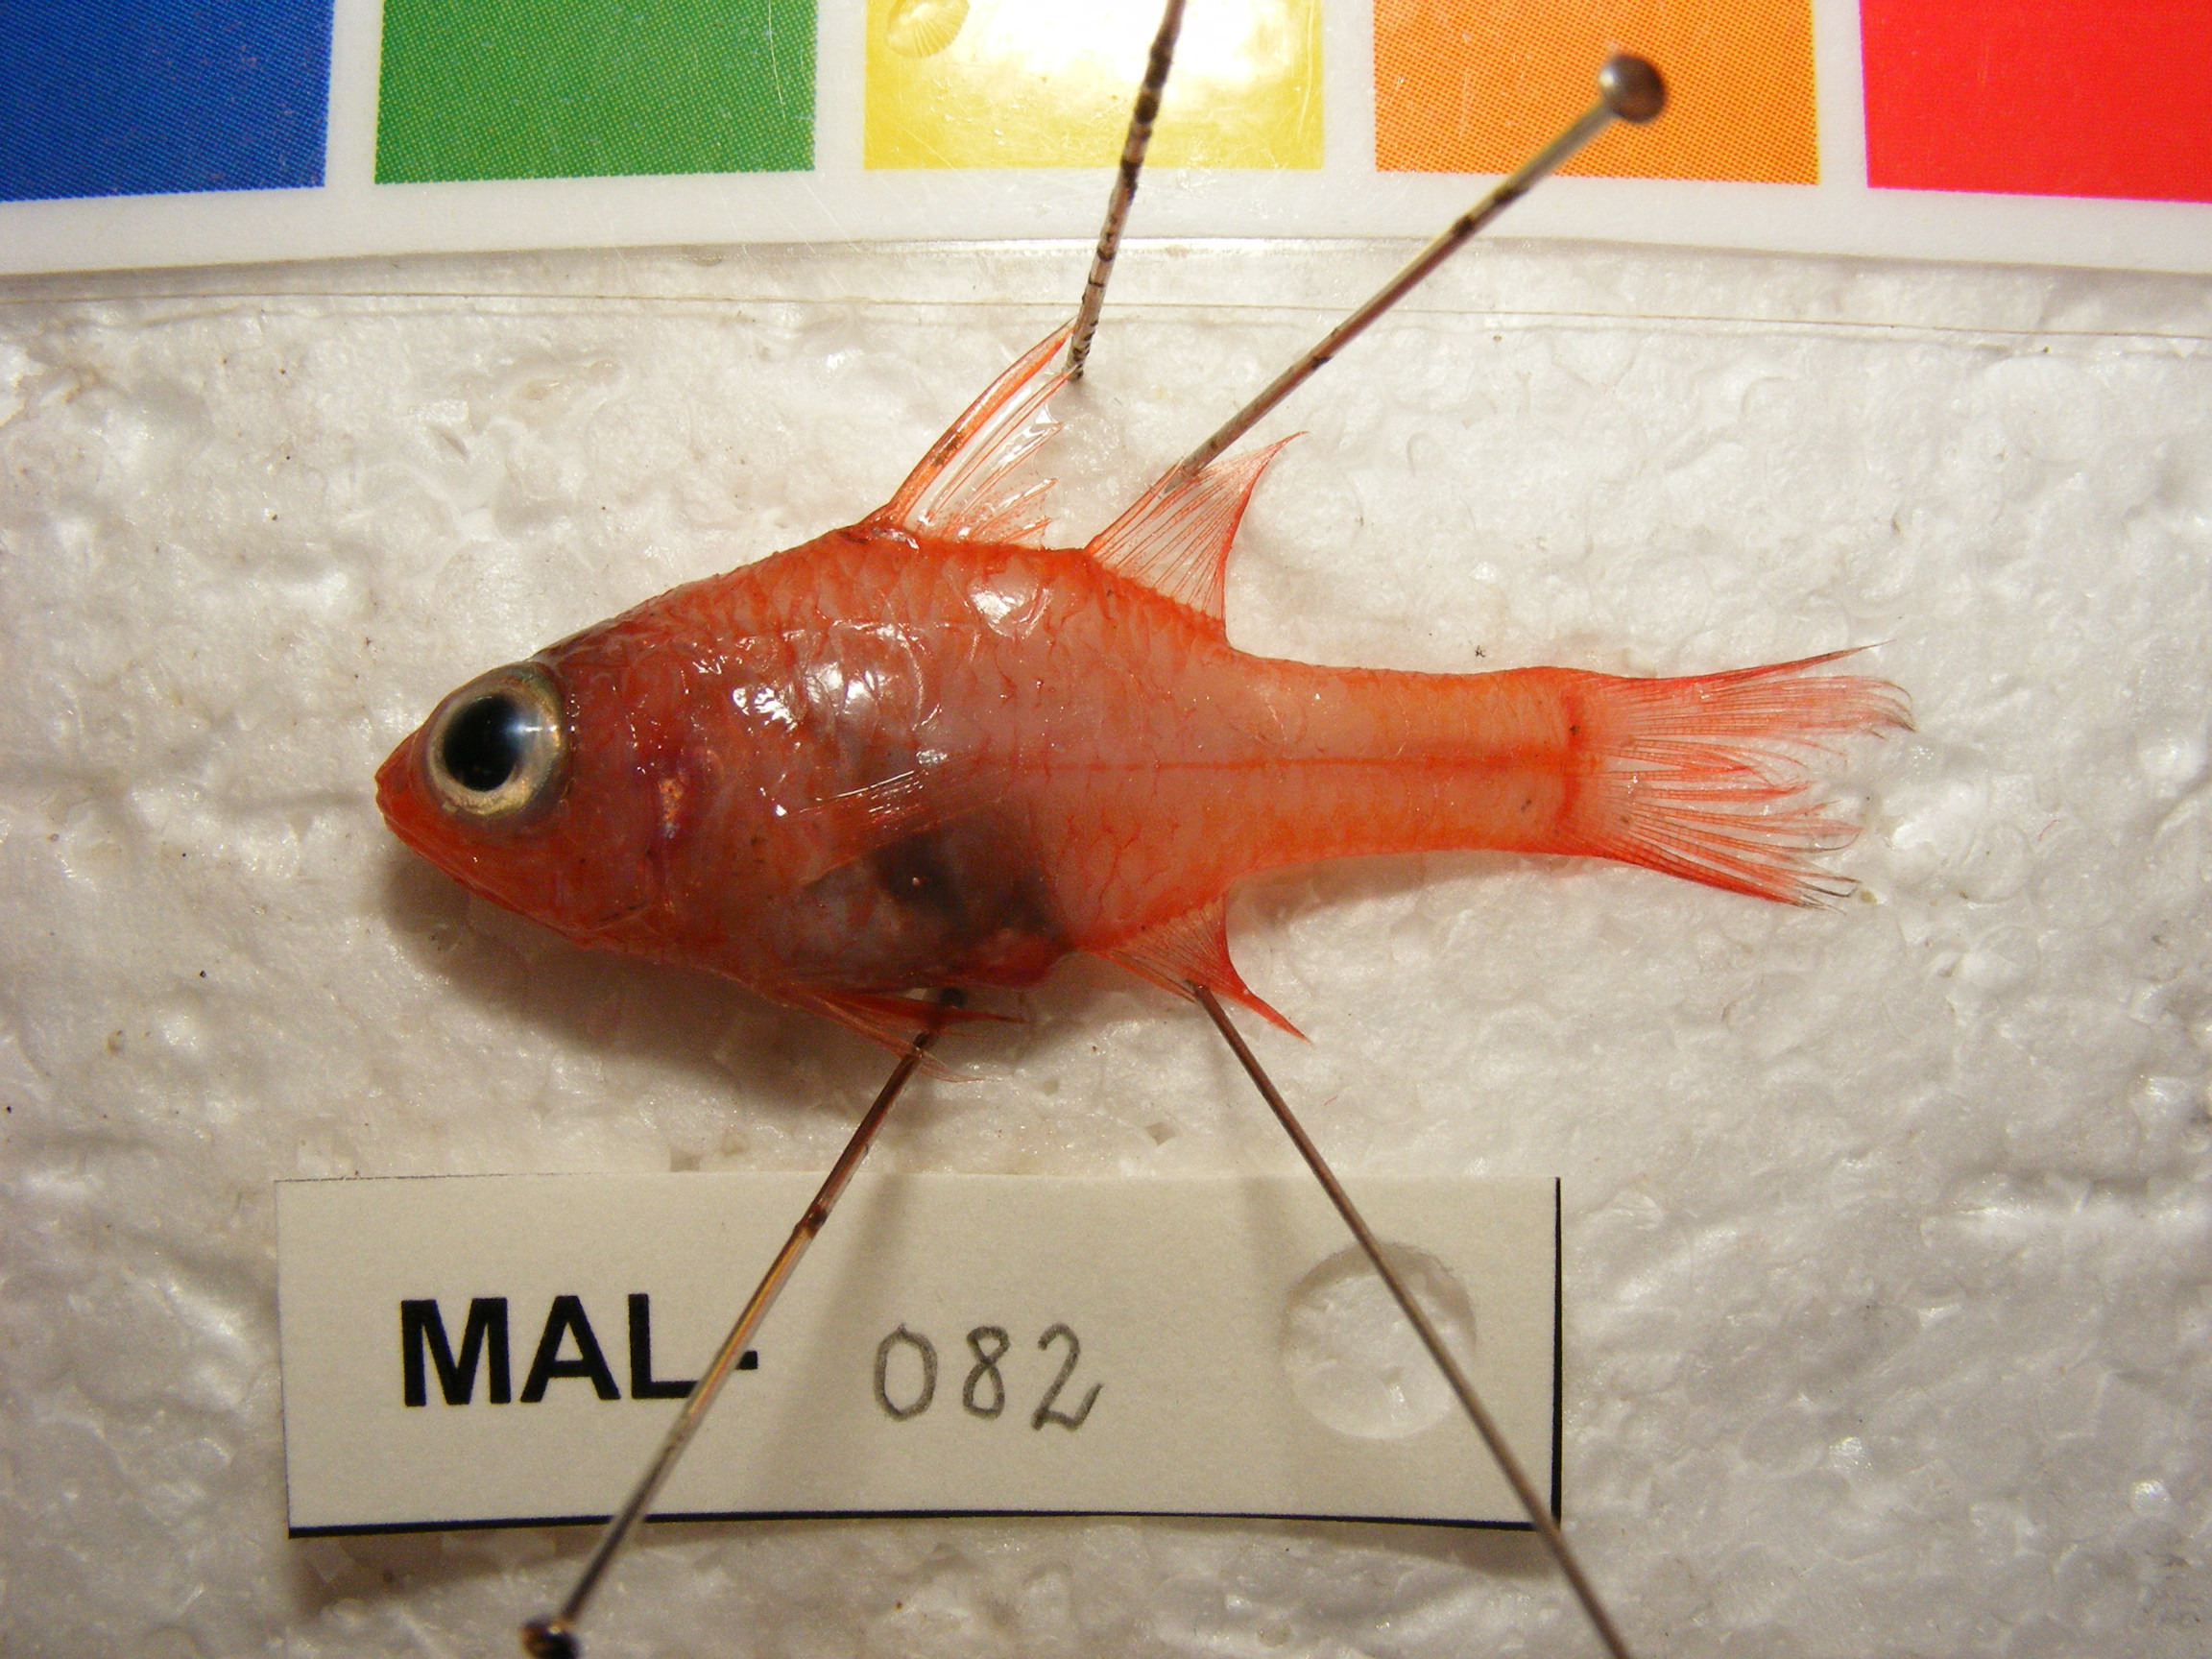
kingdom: Animalia
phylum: Chordata
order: Perciformes
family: Apogonidae
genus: Apogon
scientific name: Apogon doryssa
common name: Flame cardinalfish
